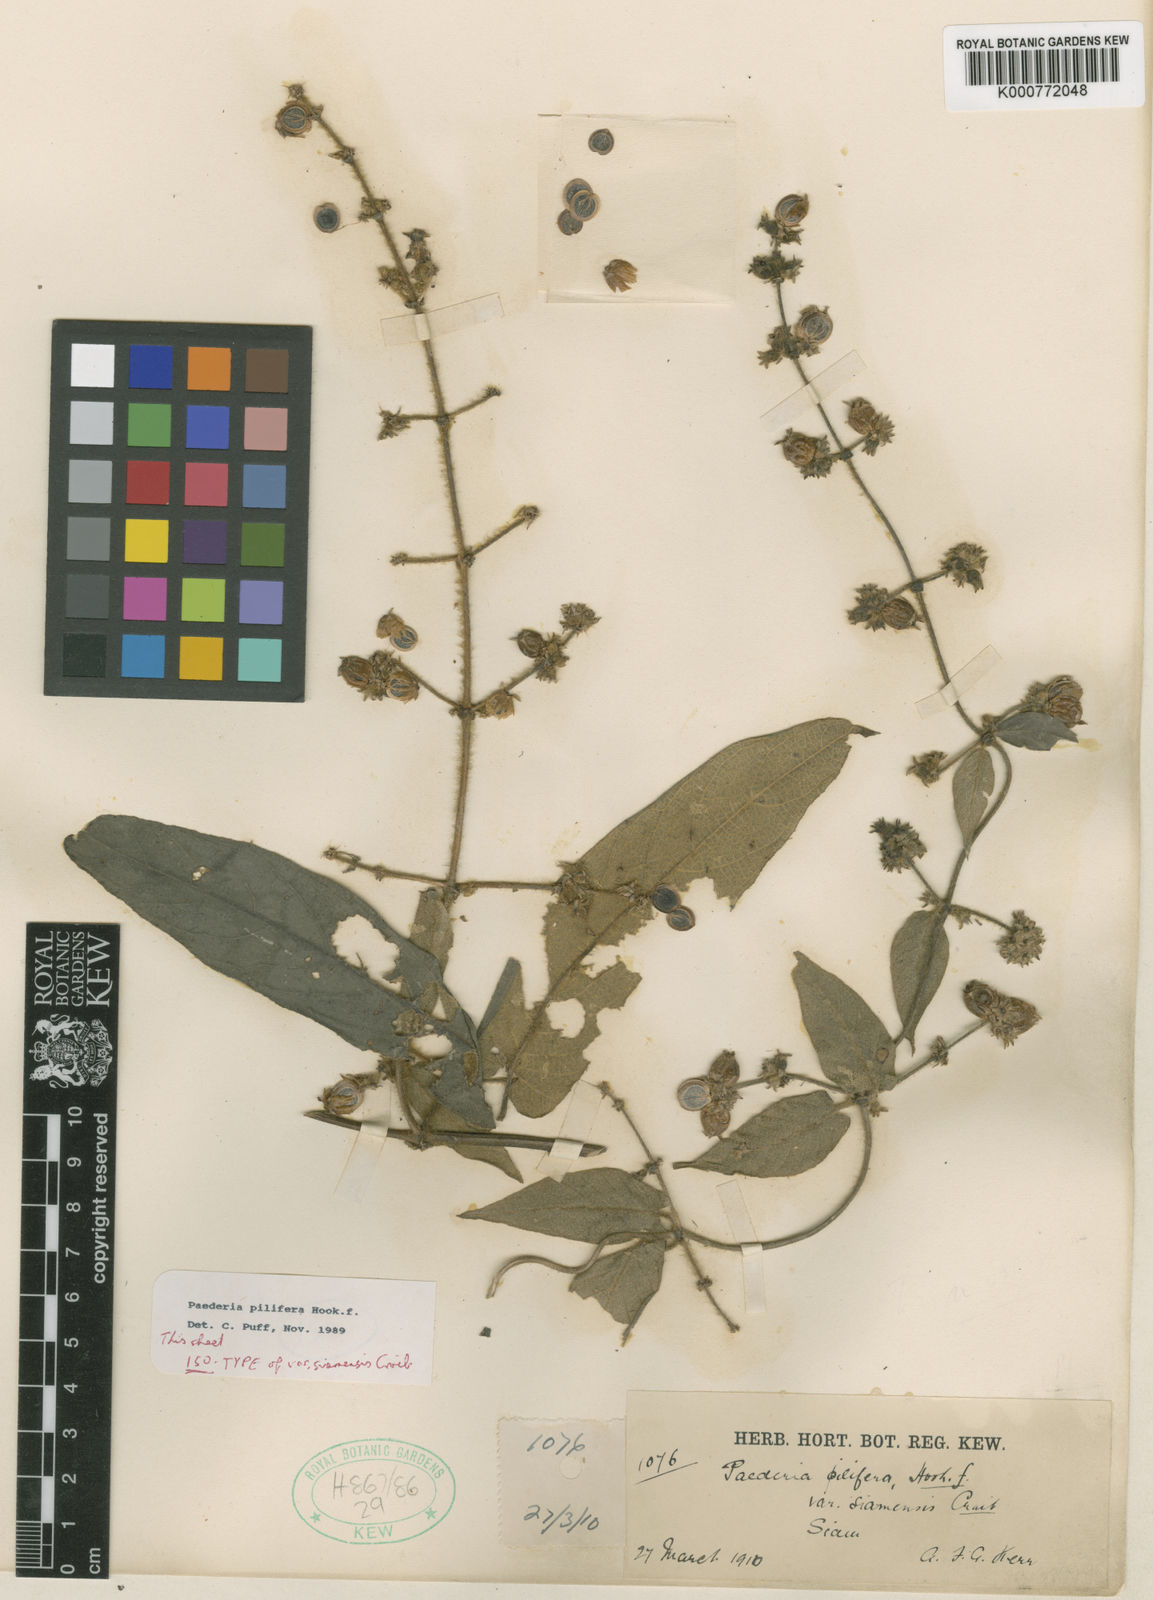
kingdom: Plantae
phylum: Tracheophyta
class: Magnoliopsida
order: Gentianales
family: Rubiaceae
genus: Paederia
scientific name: Paederia pilifera
